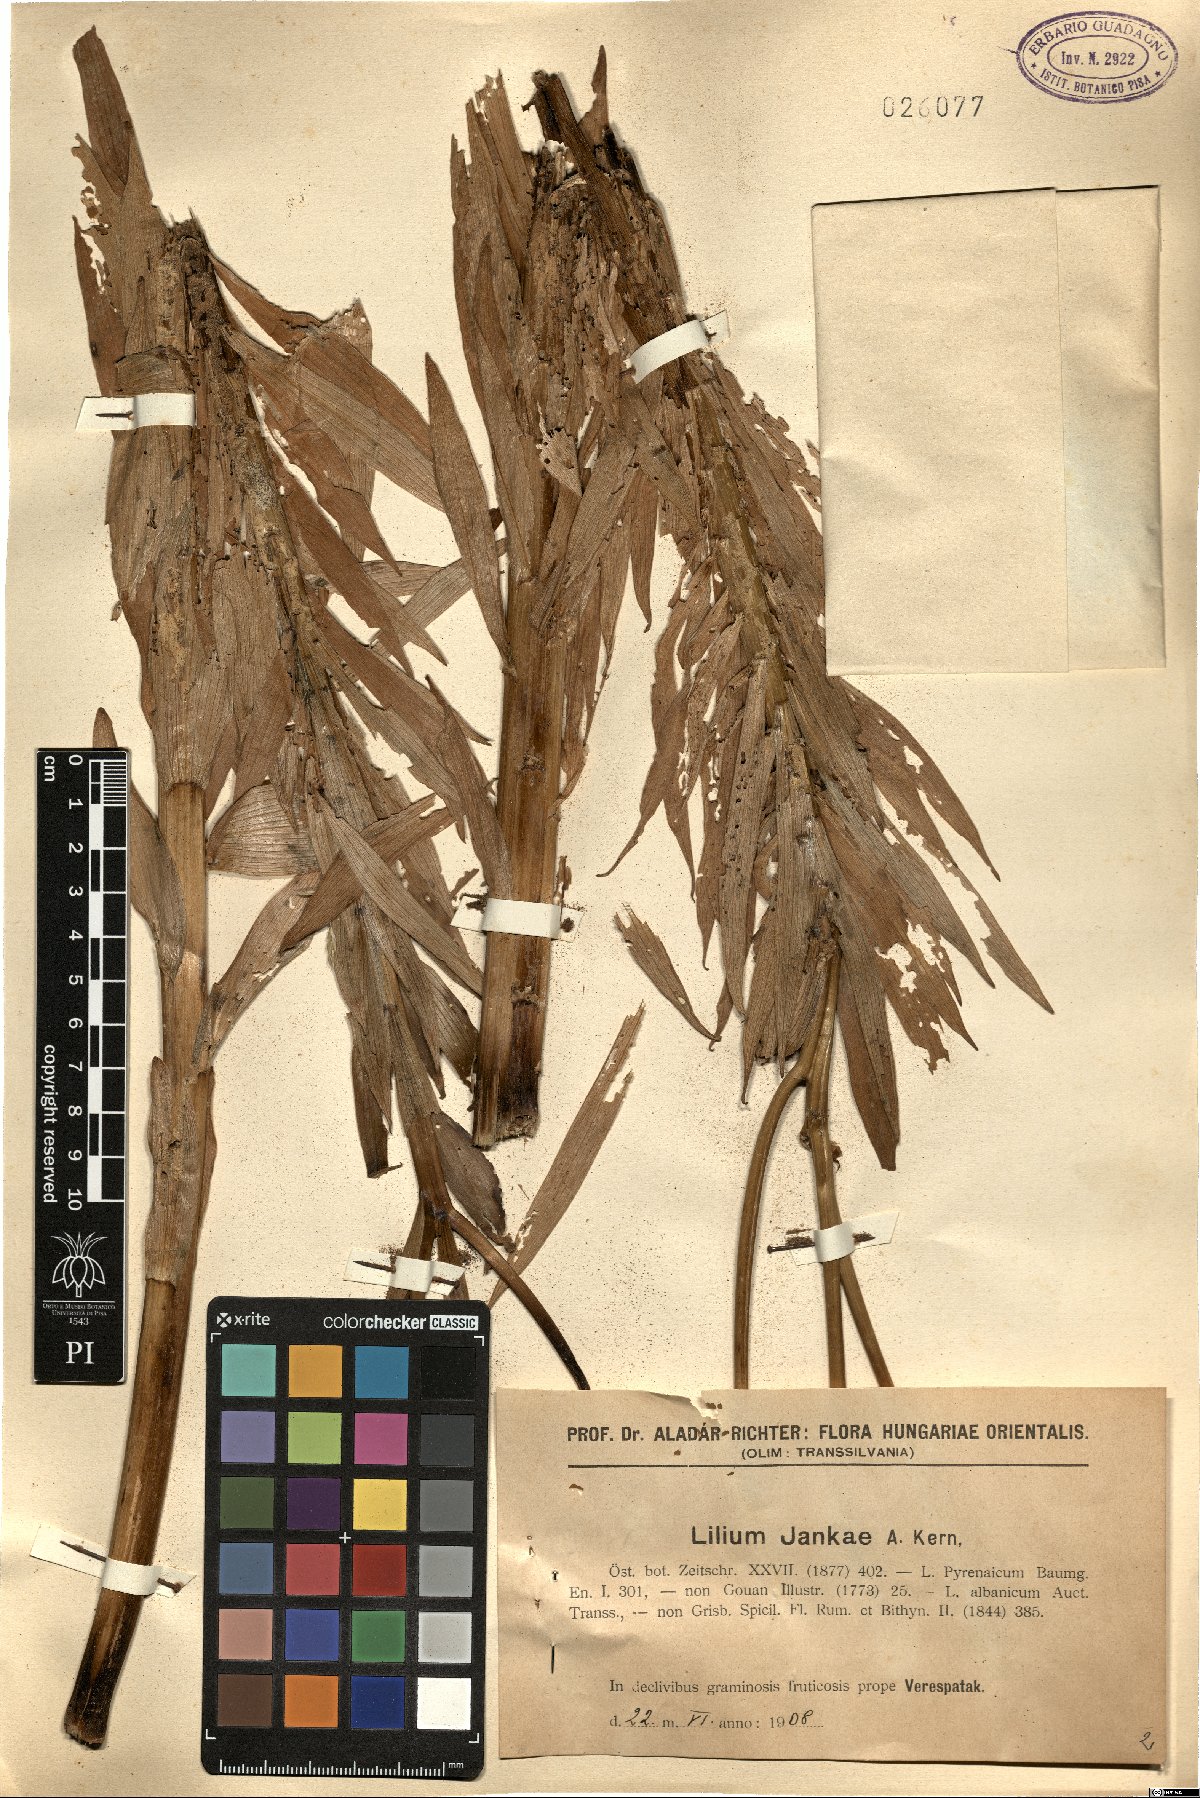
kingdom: Plantae
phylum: Tracheophyta
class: Liliopsida
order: Liliales
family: Liliaceae
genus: Lilium
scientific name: Lilium jankae
